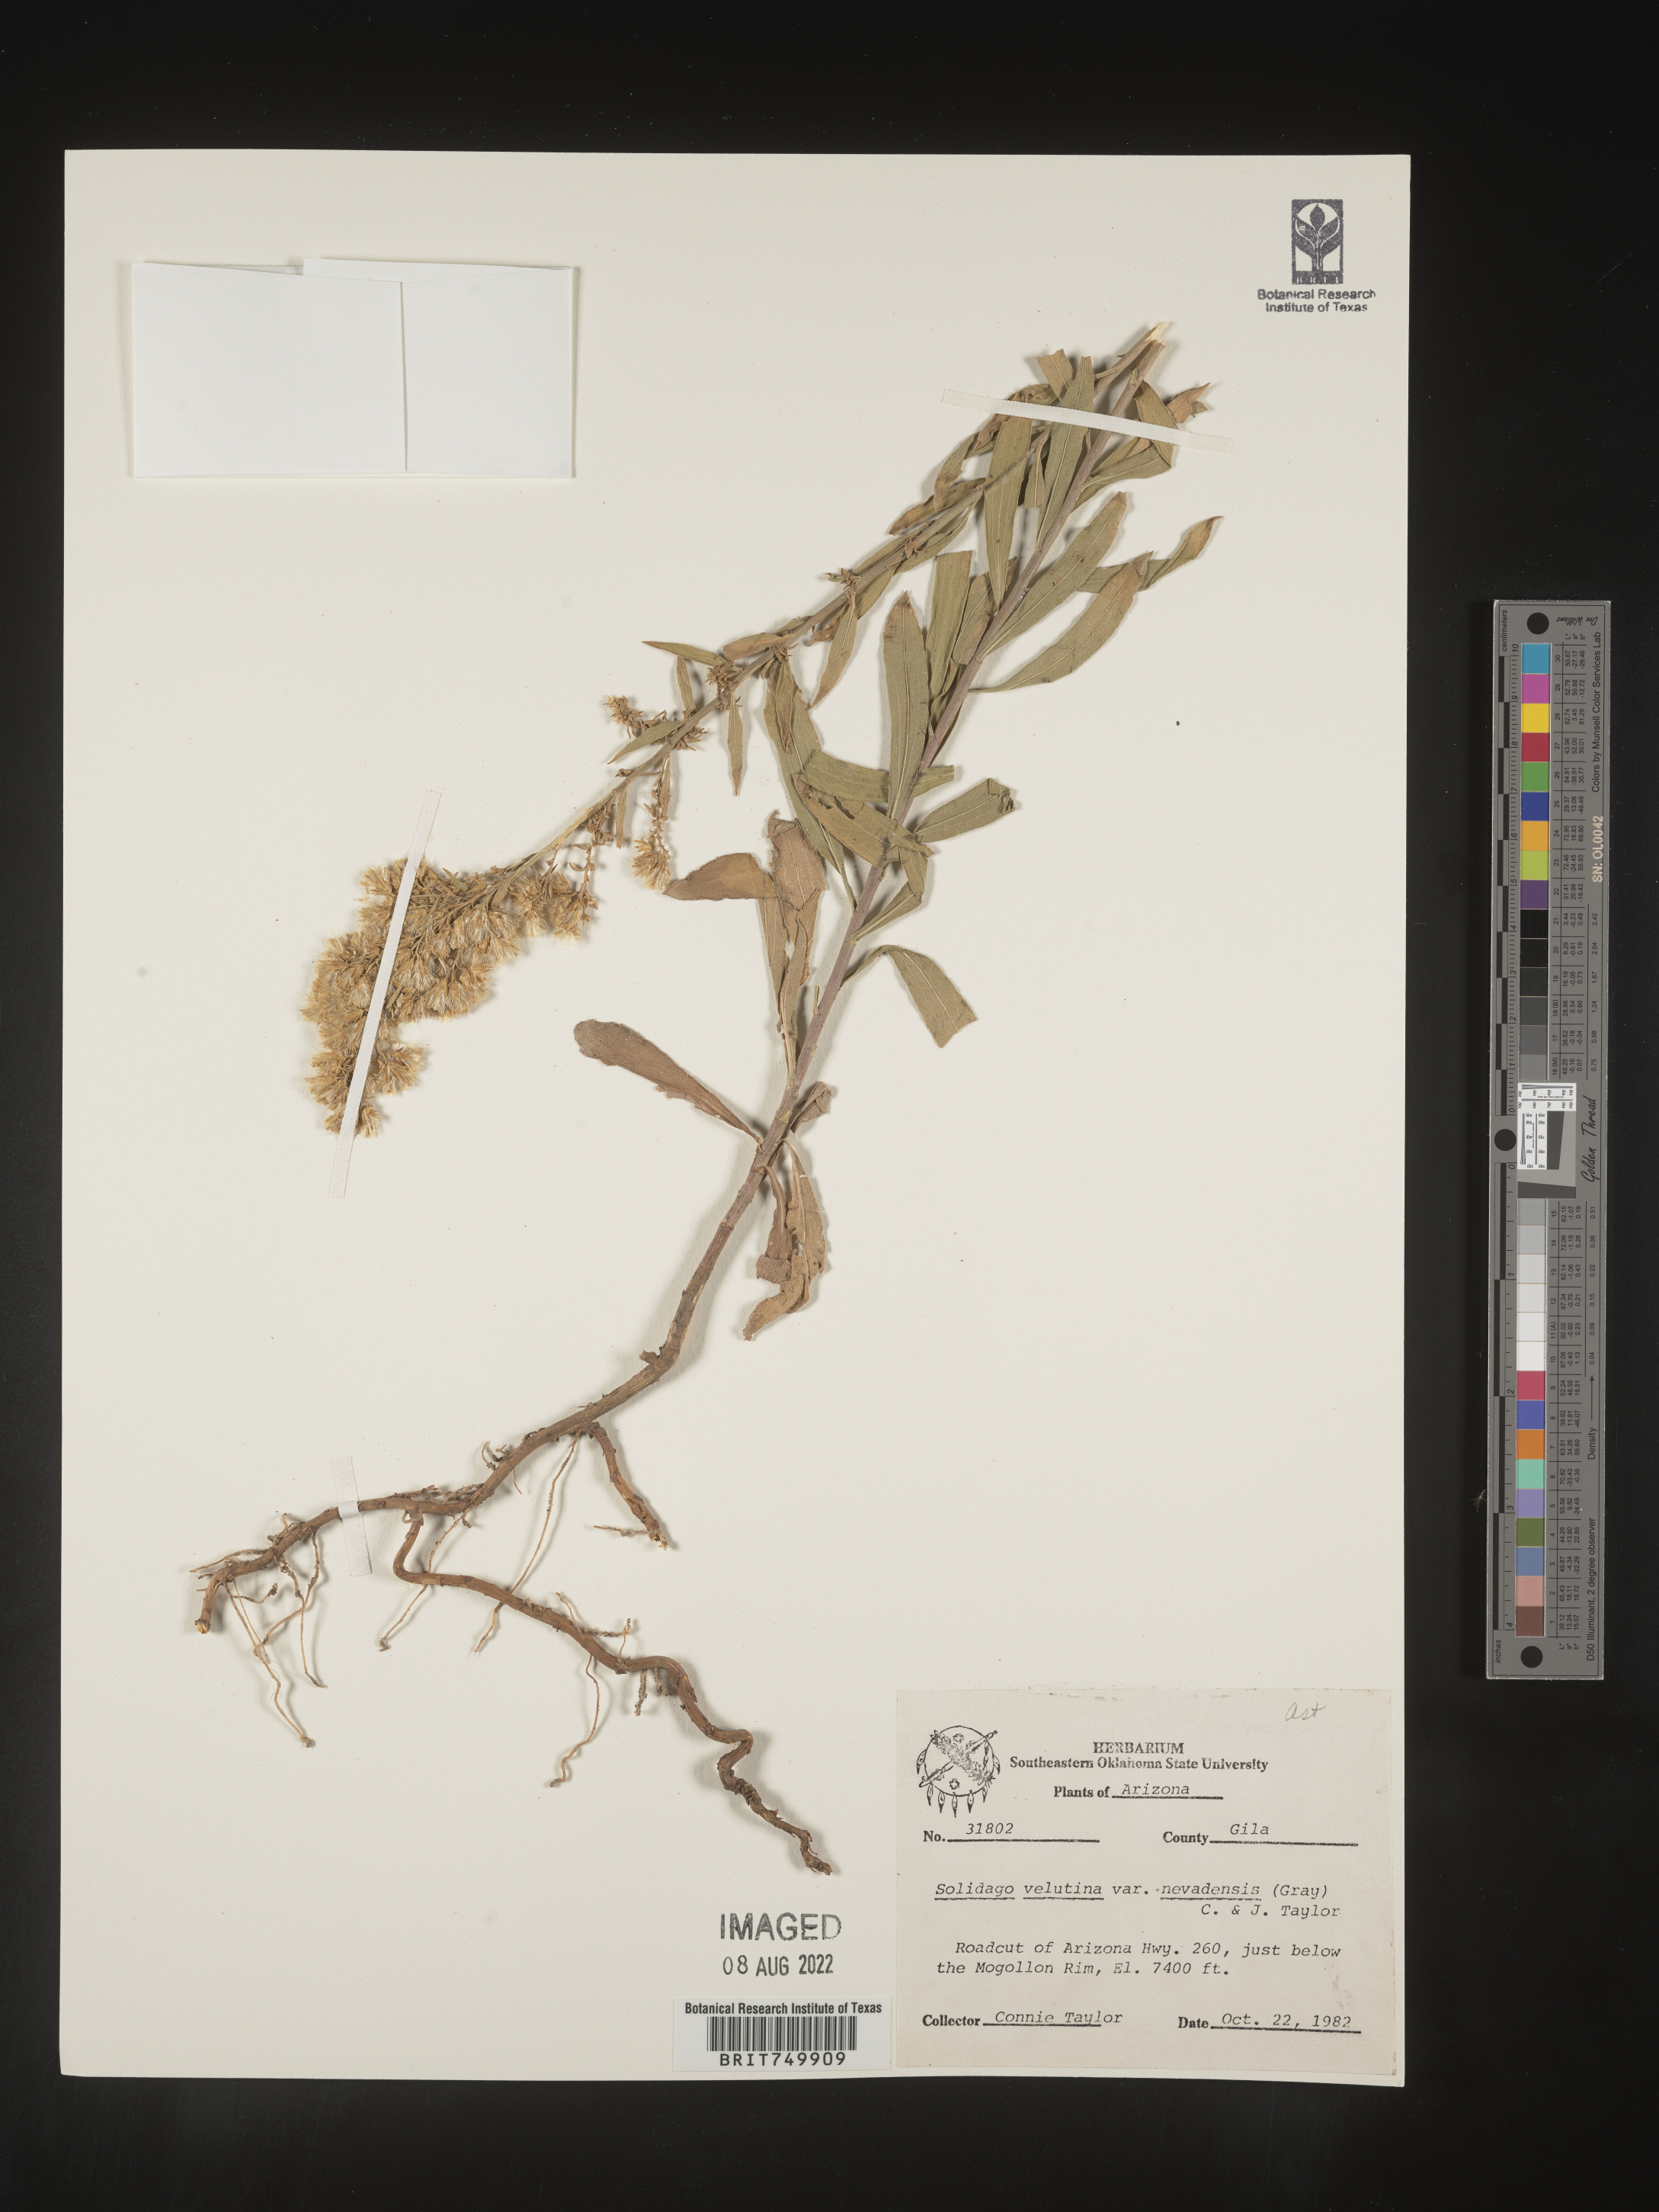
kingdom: Plantae
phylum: Tracheophyta
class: Magnoliopsida
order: Asterales
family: Asteraceae
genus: Solidago
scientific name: Solidago velutina
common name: Three-nerve goldenrod
